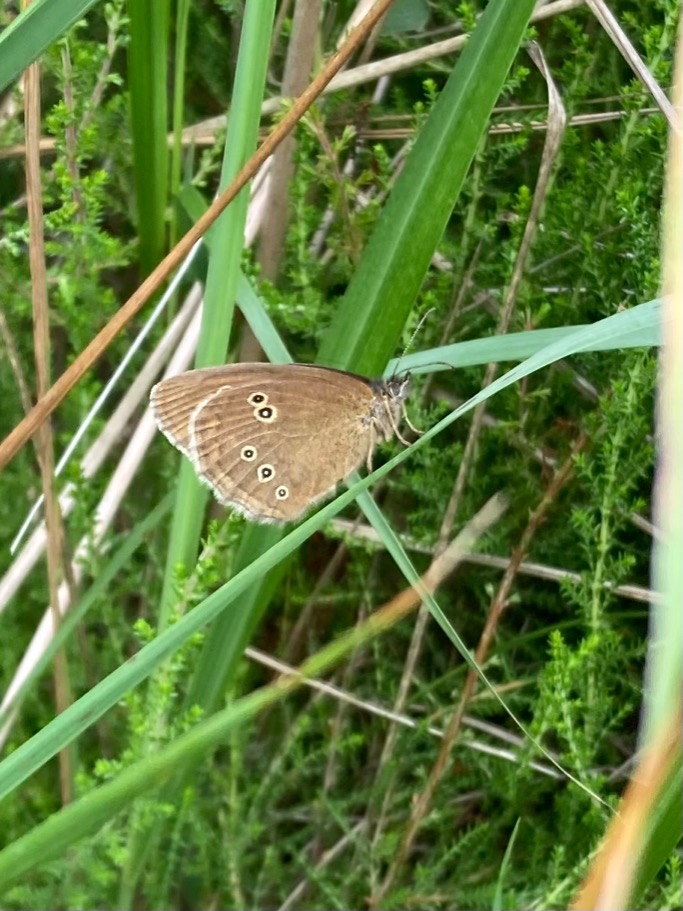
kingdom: Animalia
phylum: Arthropoda
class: Insecta
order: Lepidoptera
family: Nymphalidae
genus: Aphantopus
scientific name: Aphantopus hyperantus
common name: Engrandøje
